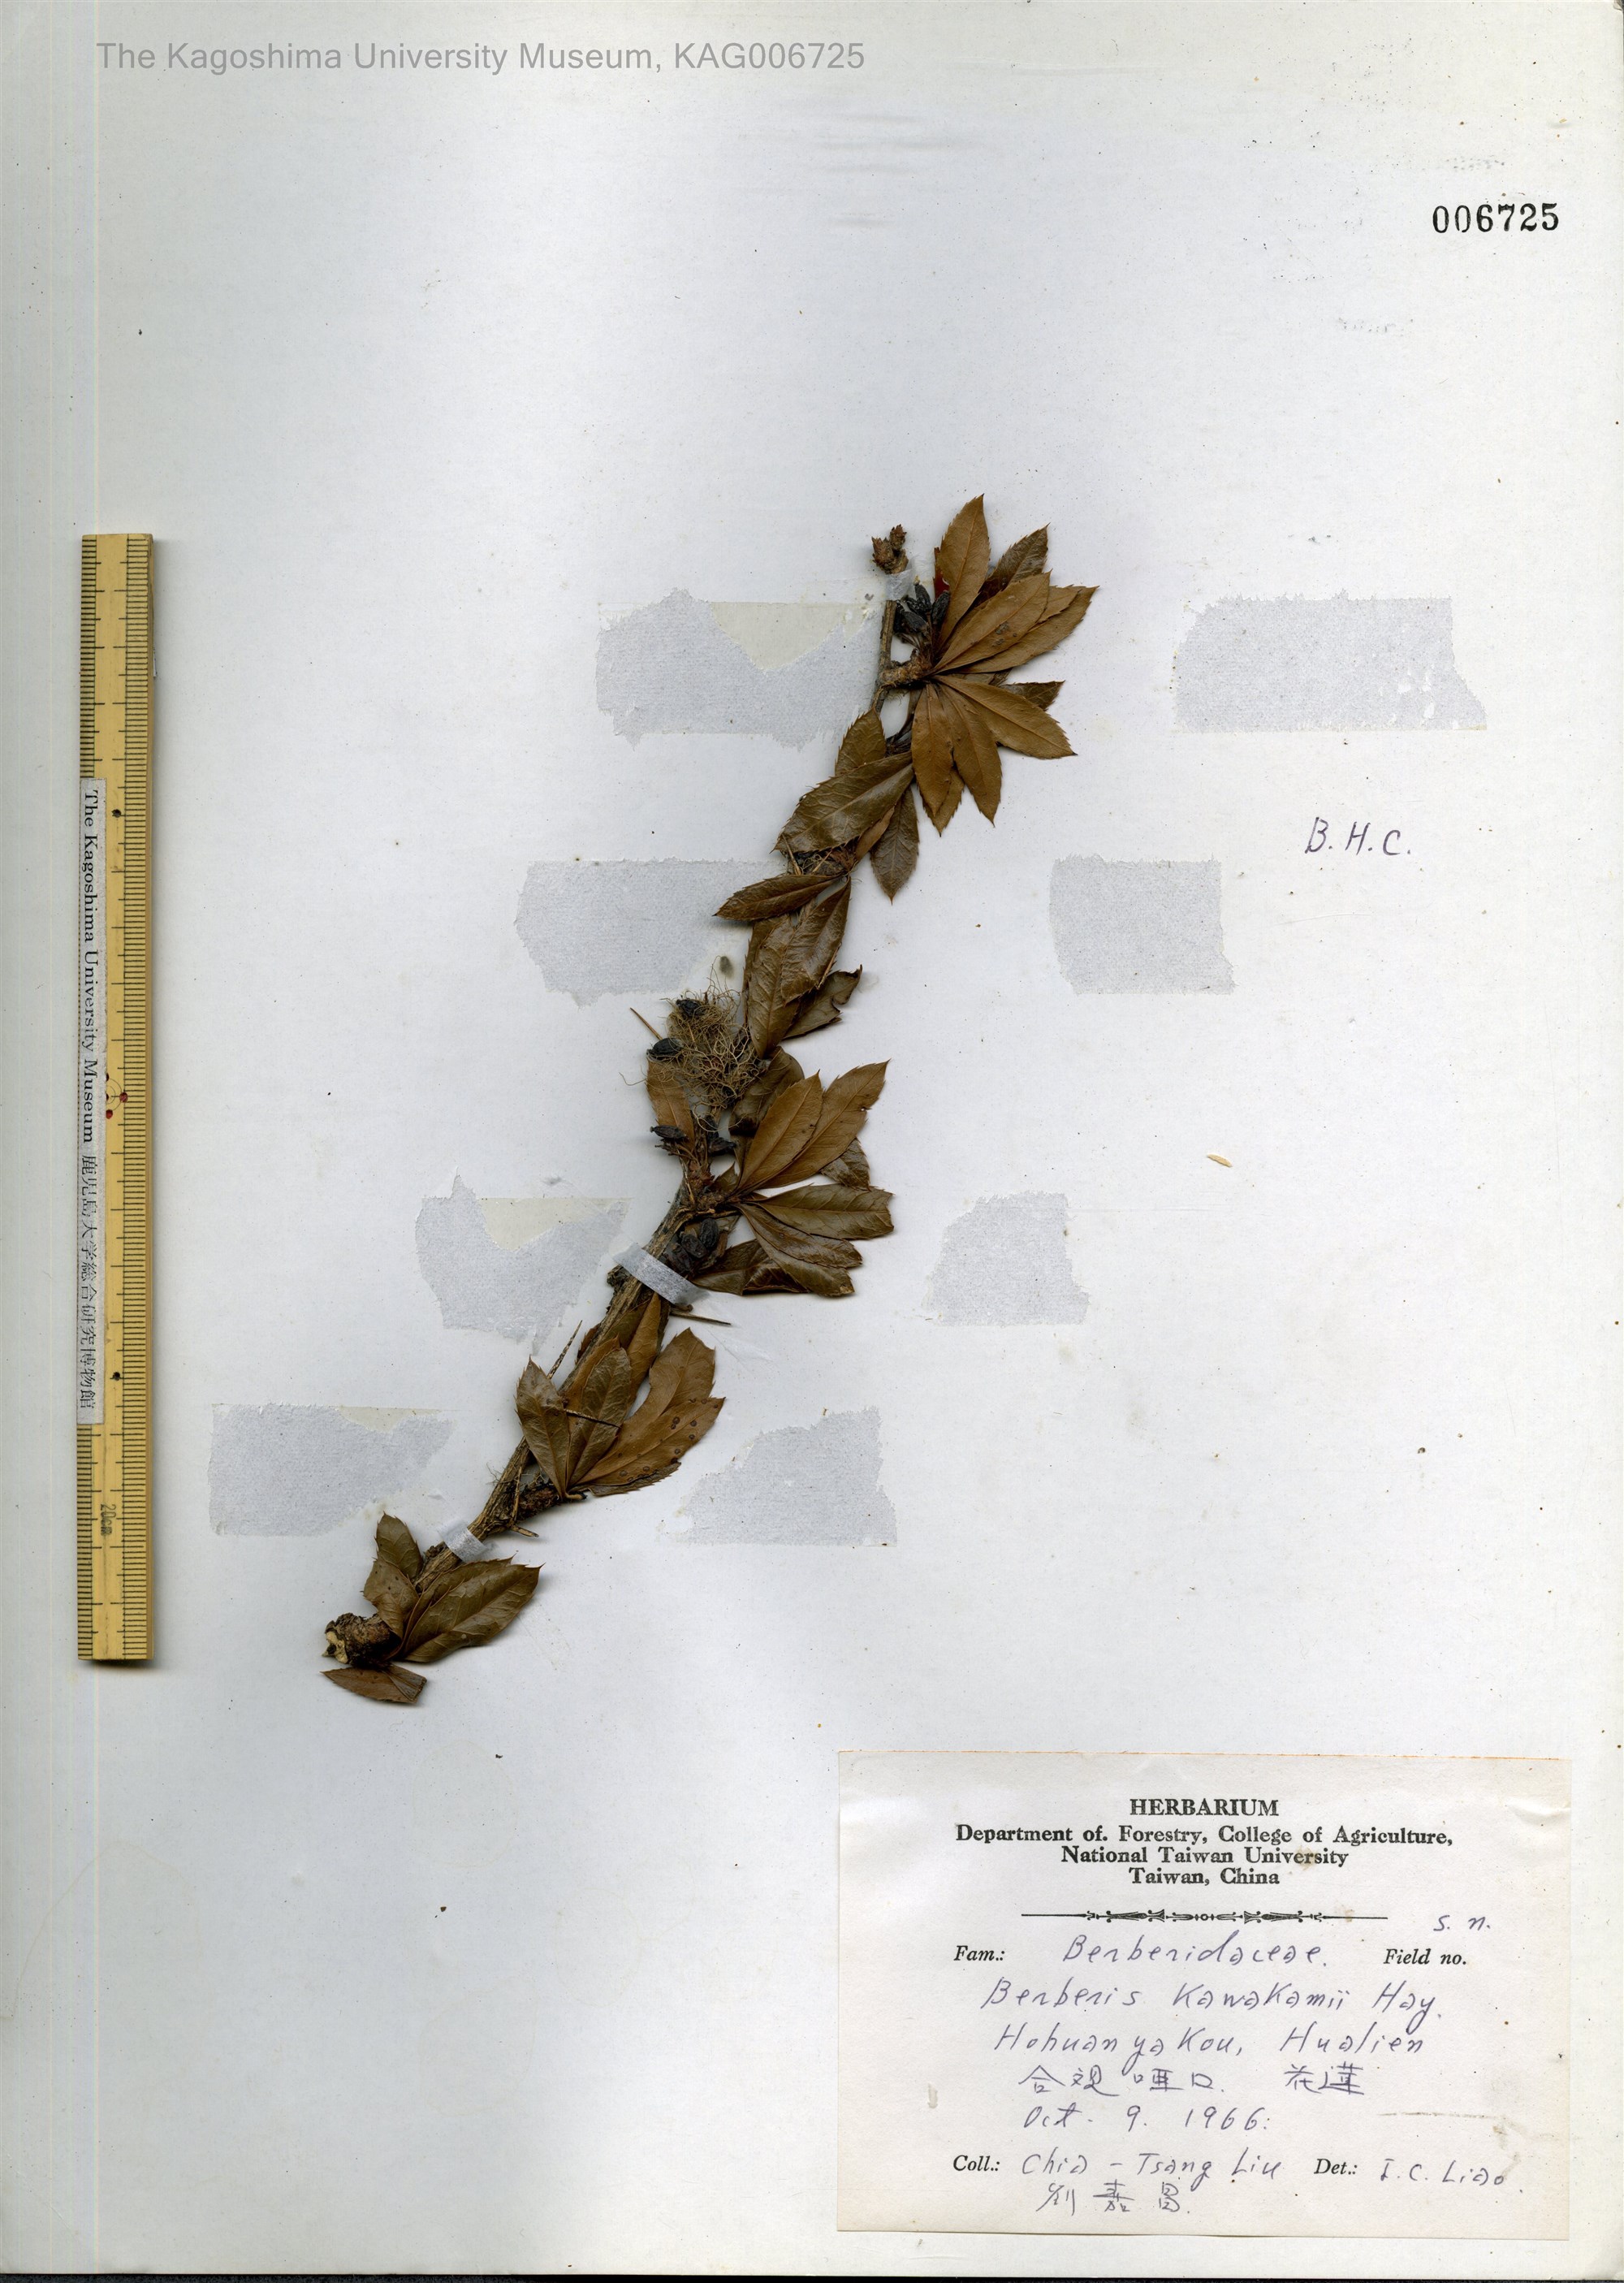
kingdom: Plantae
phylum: Tracheophyta
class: Magnoliopsida
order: Ranunculales
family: Berberidaceae
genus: Berberis
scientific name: Berberis kawakamii
